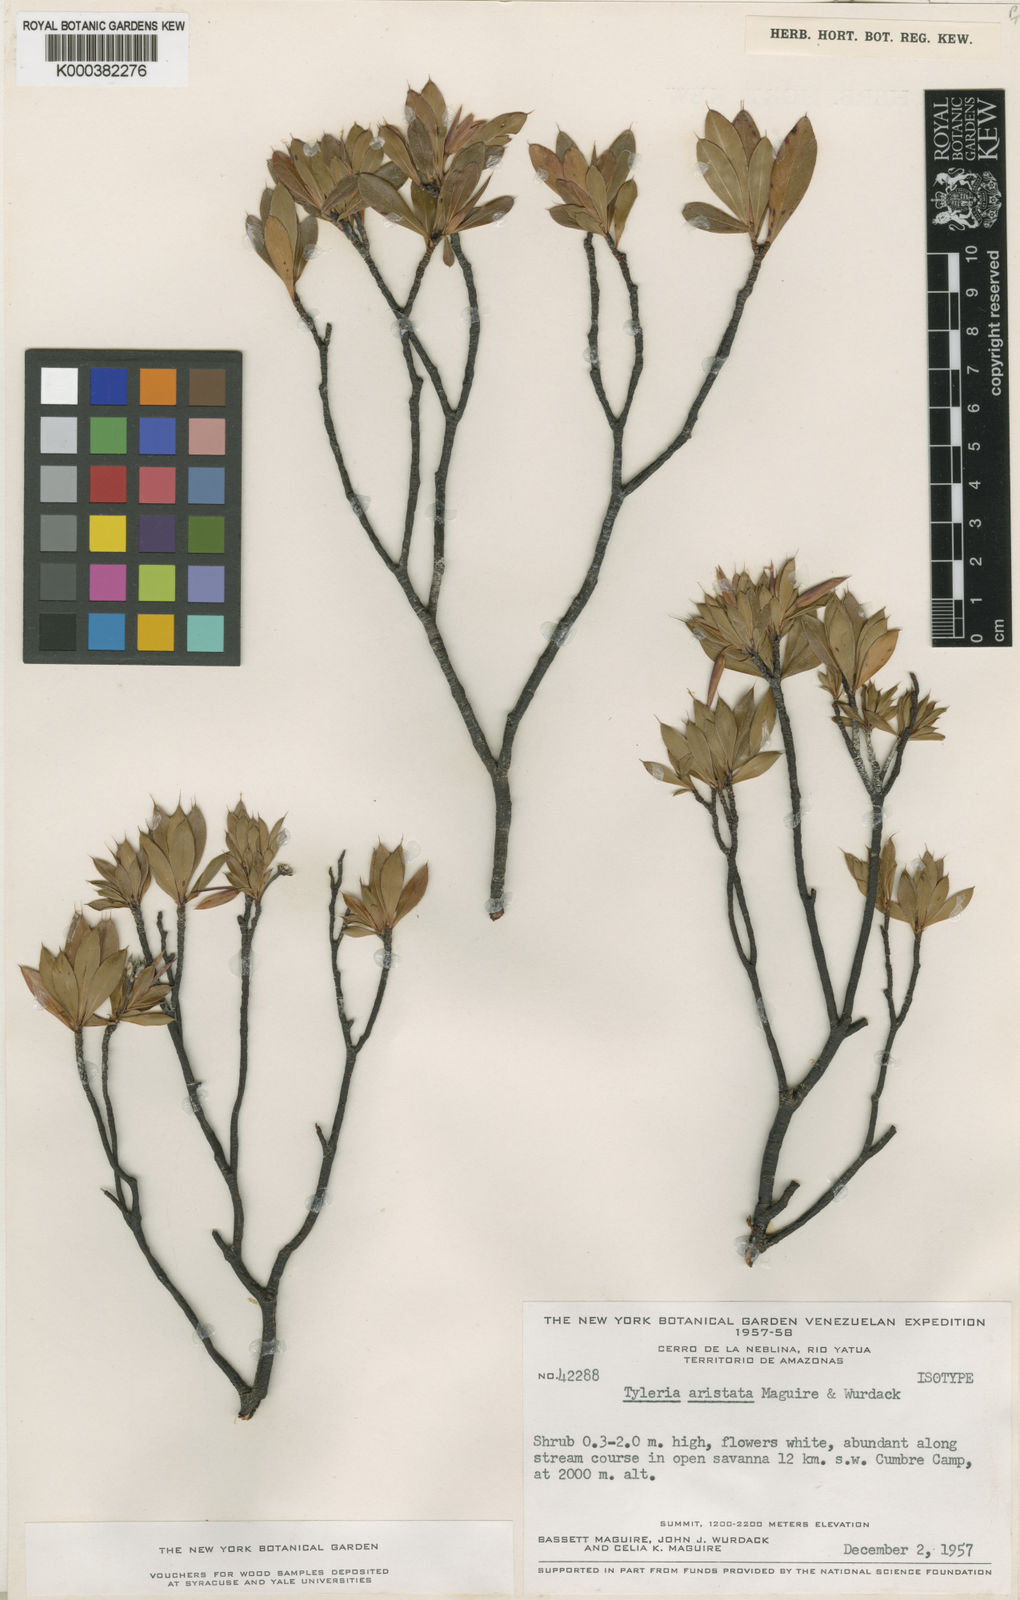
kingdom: Plantae
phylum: Tracheophyta
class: Magnoliopsida
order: Malpighiales
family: Ochnaceae
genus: Tyleria
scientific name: Tyleria aristata
